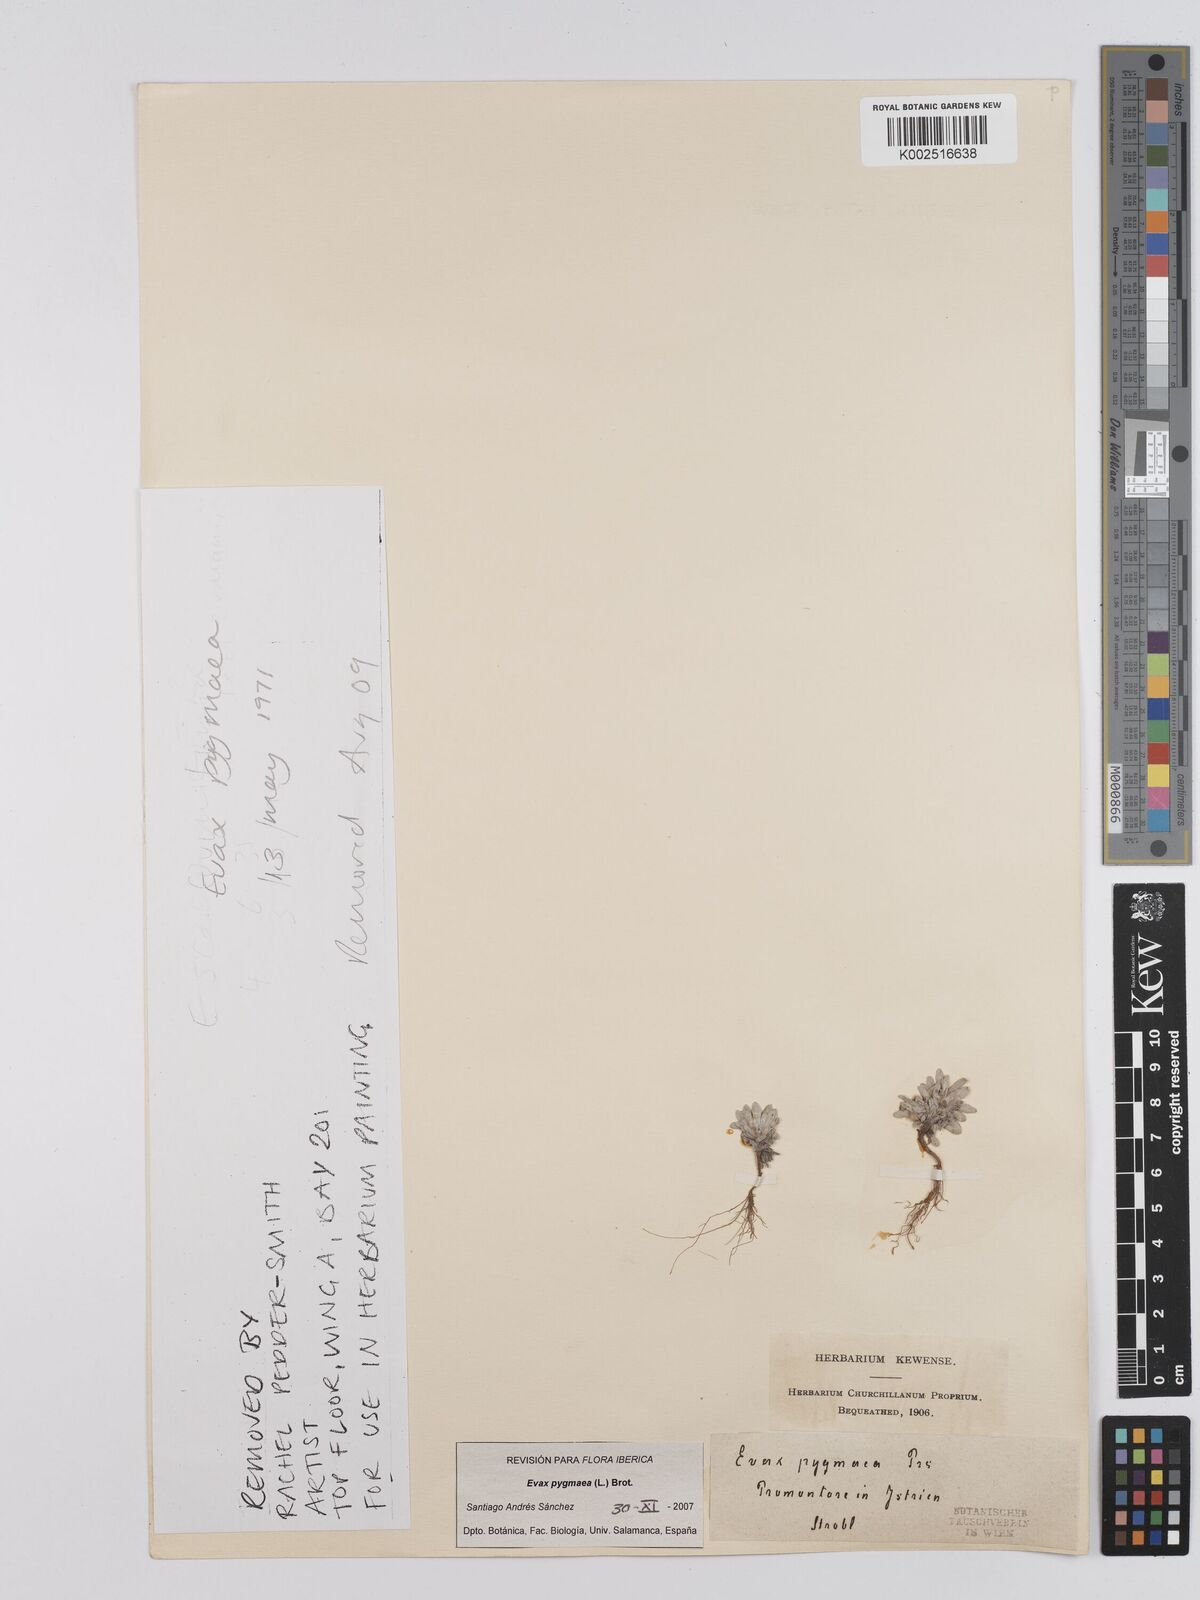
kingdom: Plantae
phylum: Tracheophyta
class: Magnoliopsida
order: Asterales
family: Asteraceae
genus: Filago
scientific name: Filago pygmaea
